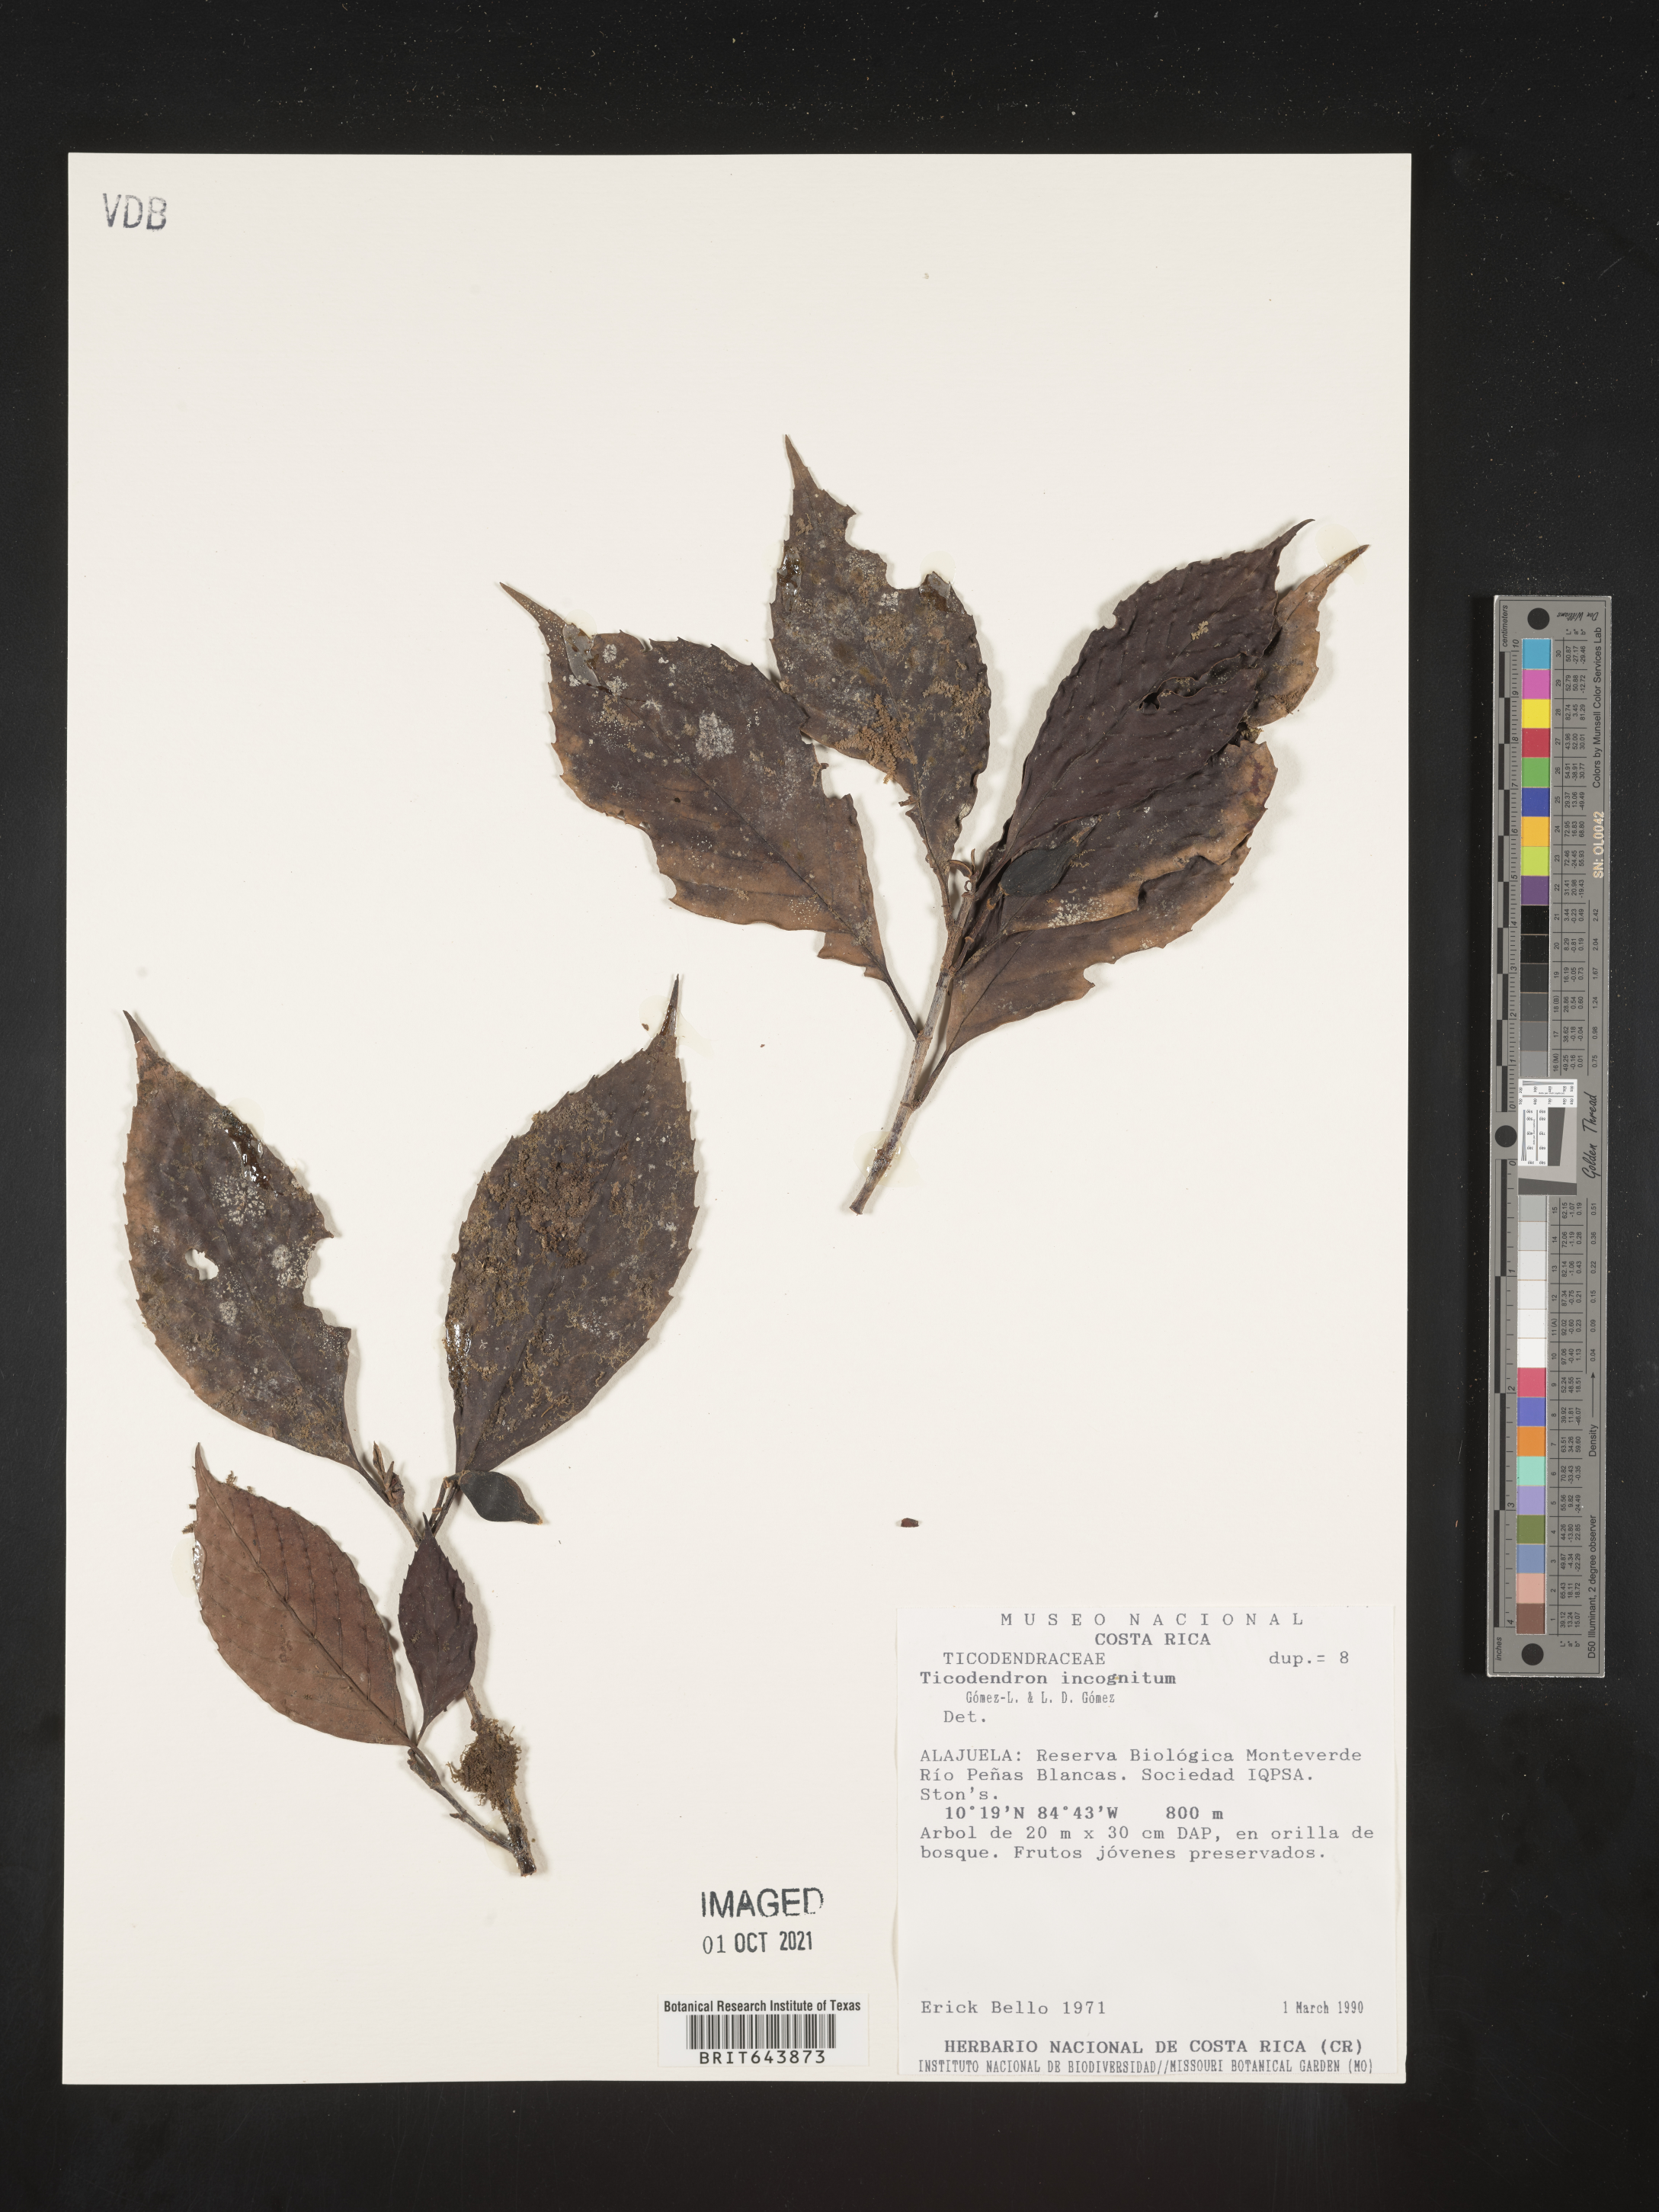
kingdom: Plantae
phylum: Tracheophyta
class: Magnoliopsida
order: Fagales
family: Ticodendraceae
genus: Ticodendron
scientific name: Ticodendron
